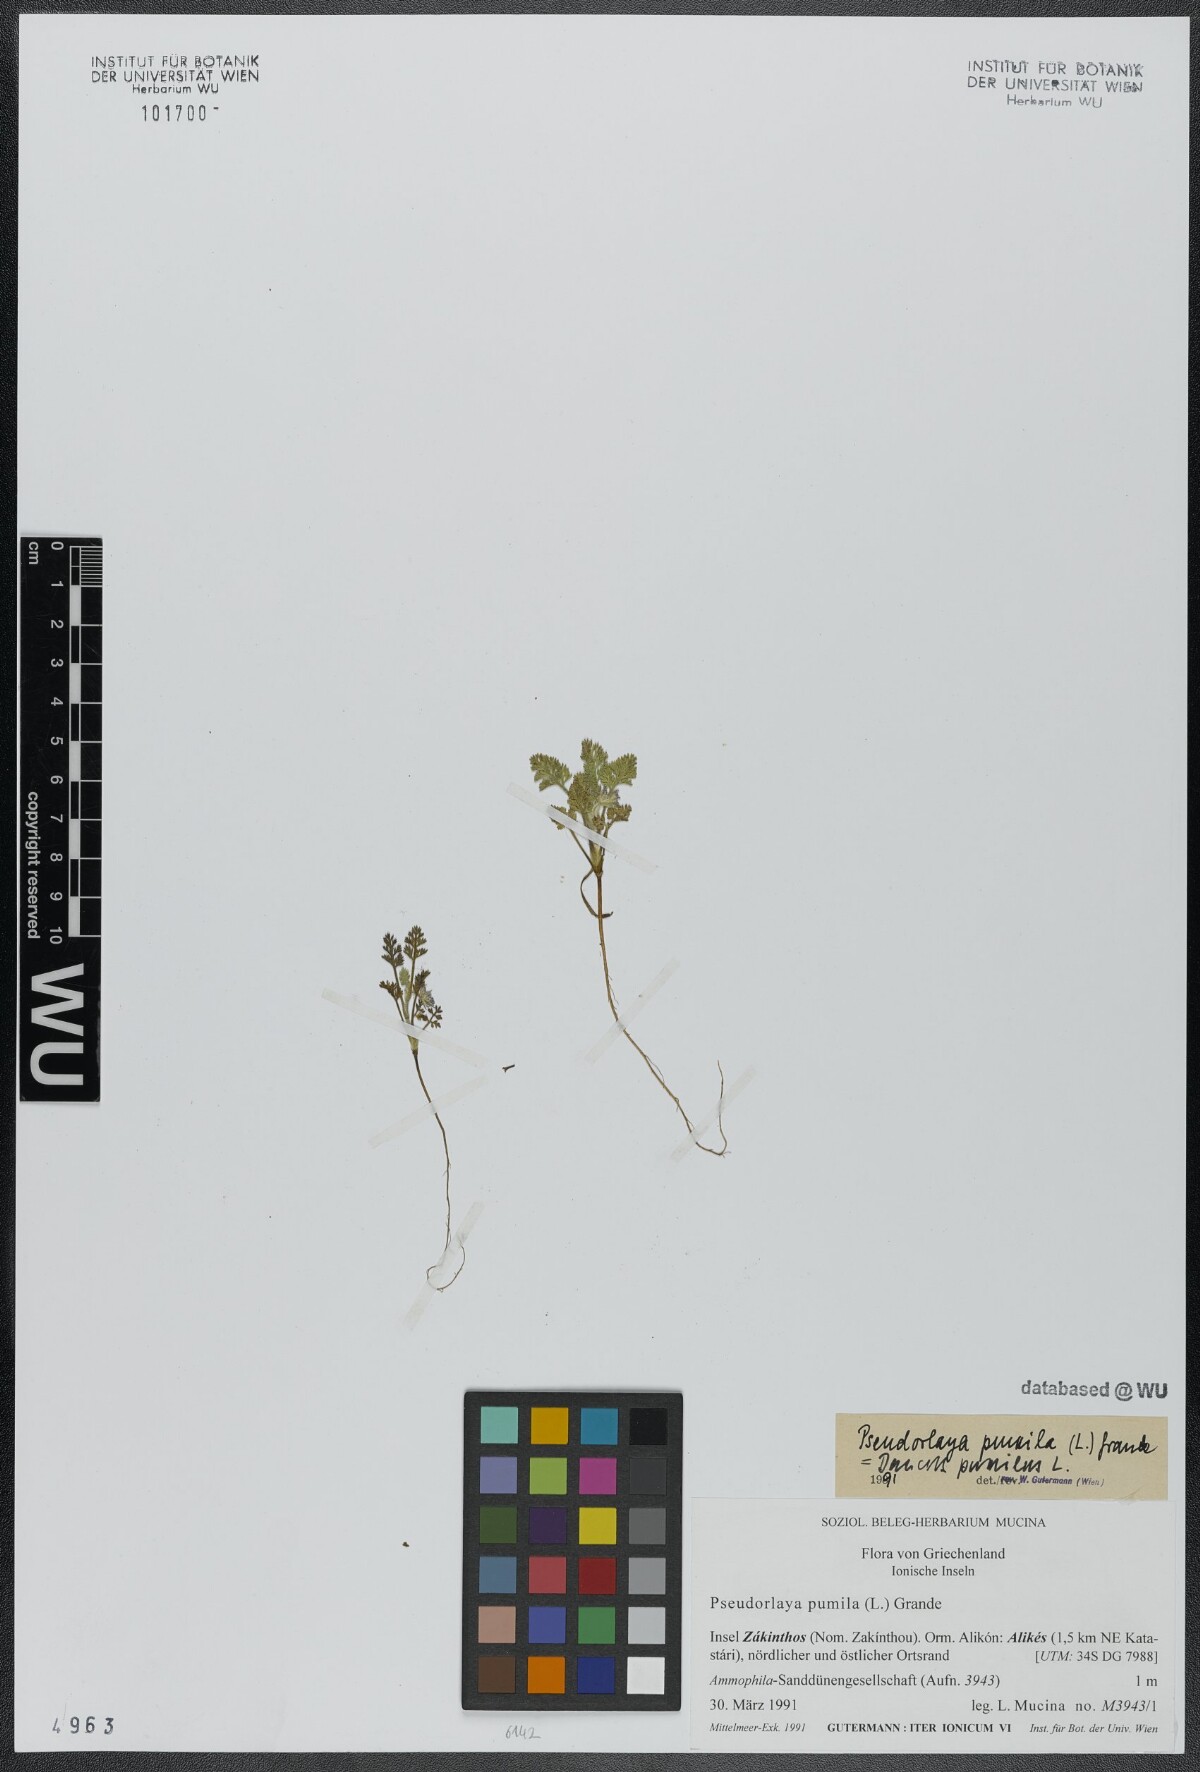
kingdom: Plantae
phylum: Tracheophyta
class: Magnoliopsida
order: Apiales
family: Apiaceae
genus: Daucus
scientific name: Daucus pumilus
